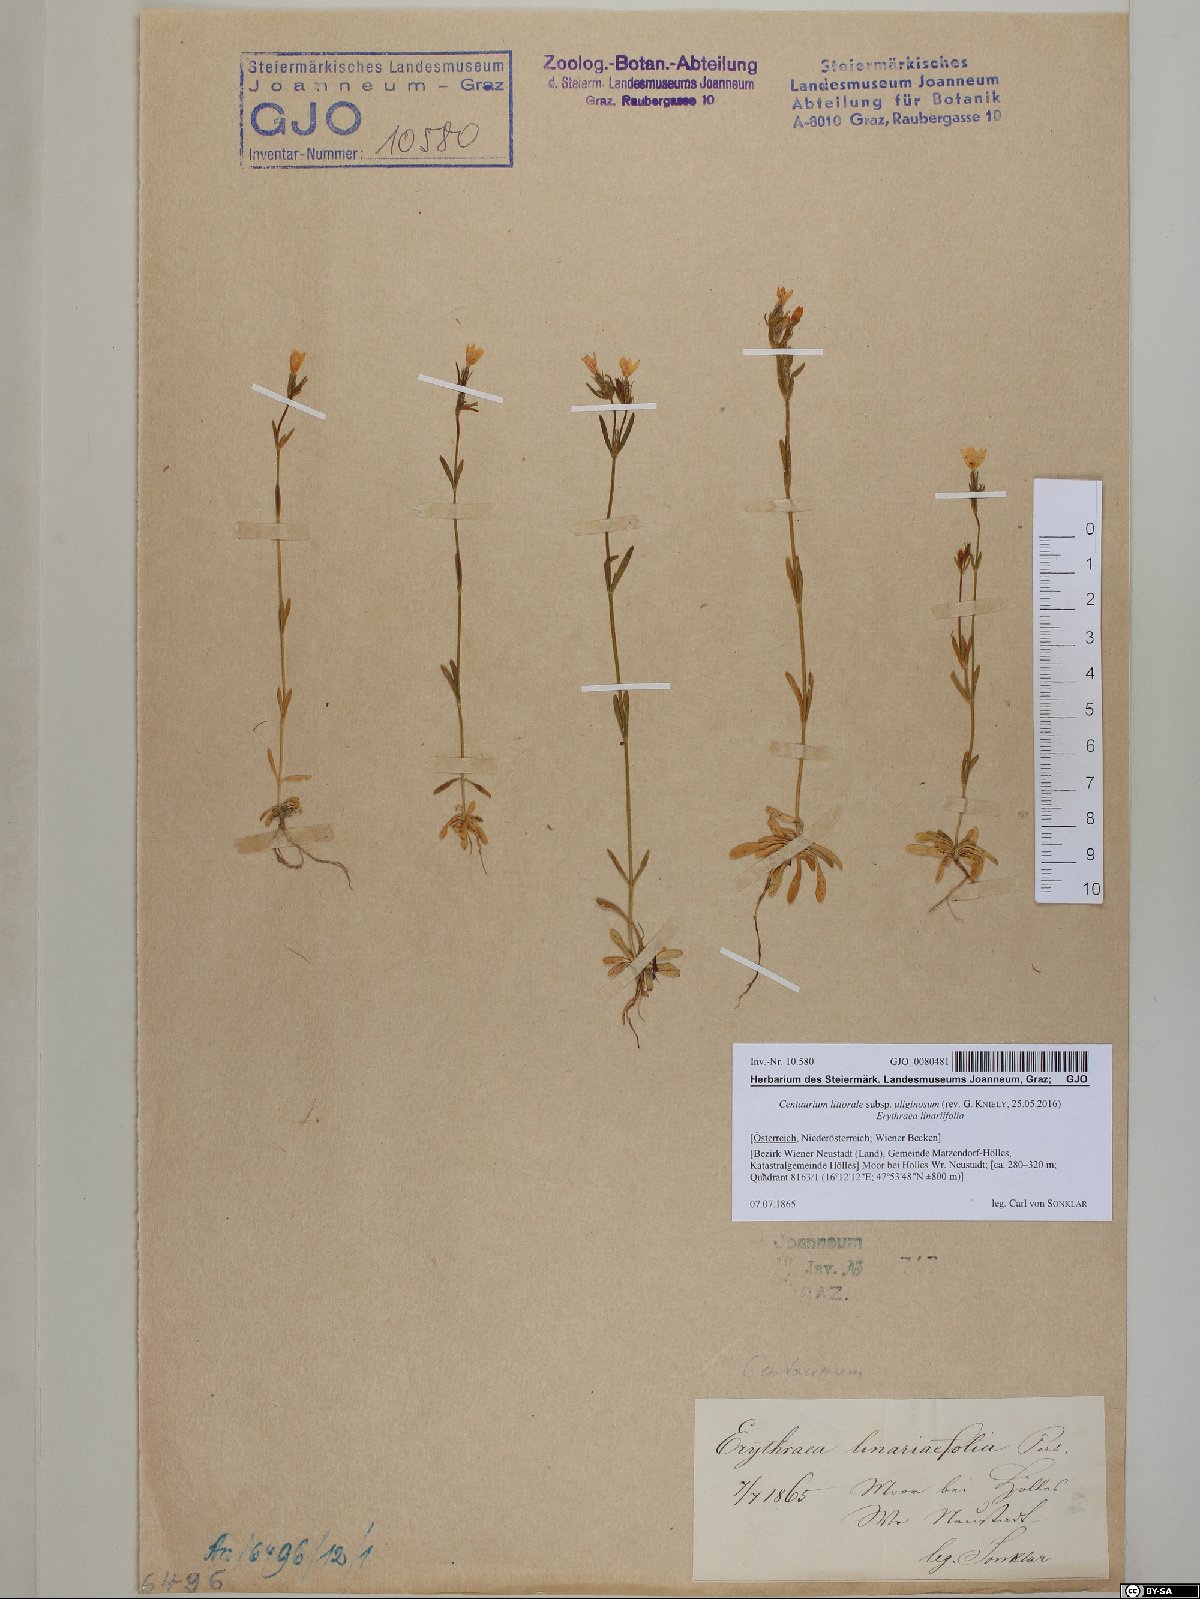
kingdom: Plantae
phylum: Tracheophyta
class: Magnoliopsida
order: Gentianales
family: Gentianaceae
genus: Centaurium
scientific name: Centaurium littorale
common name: Seaside centaury
